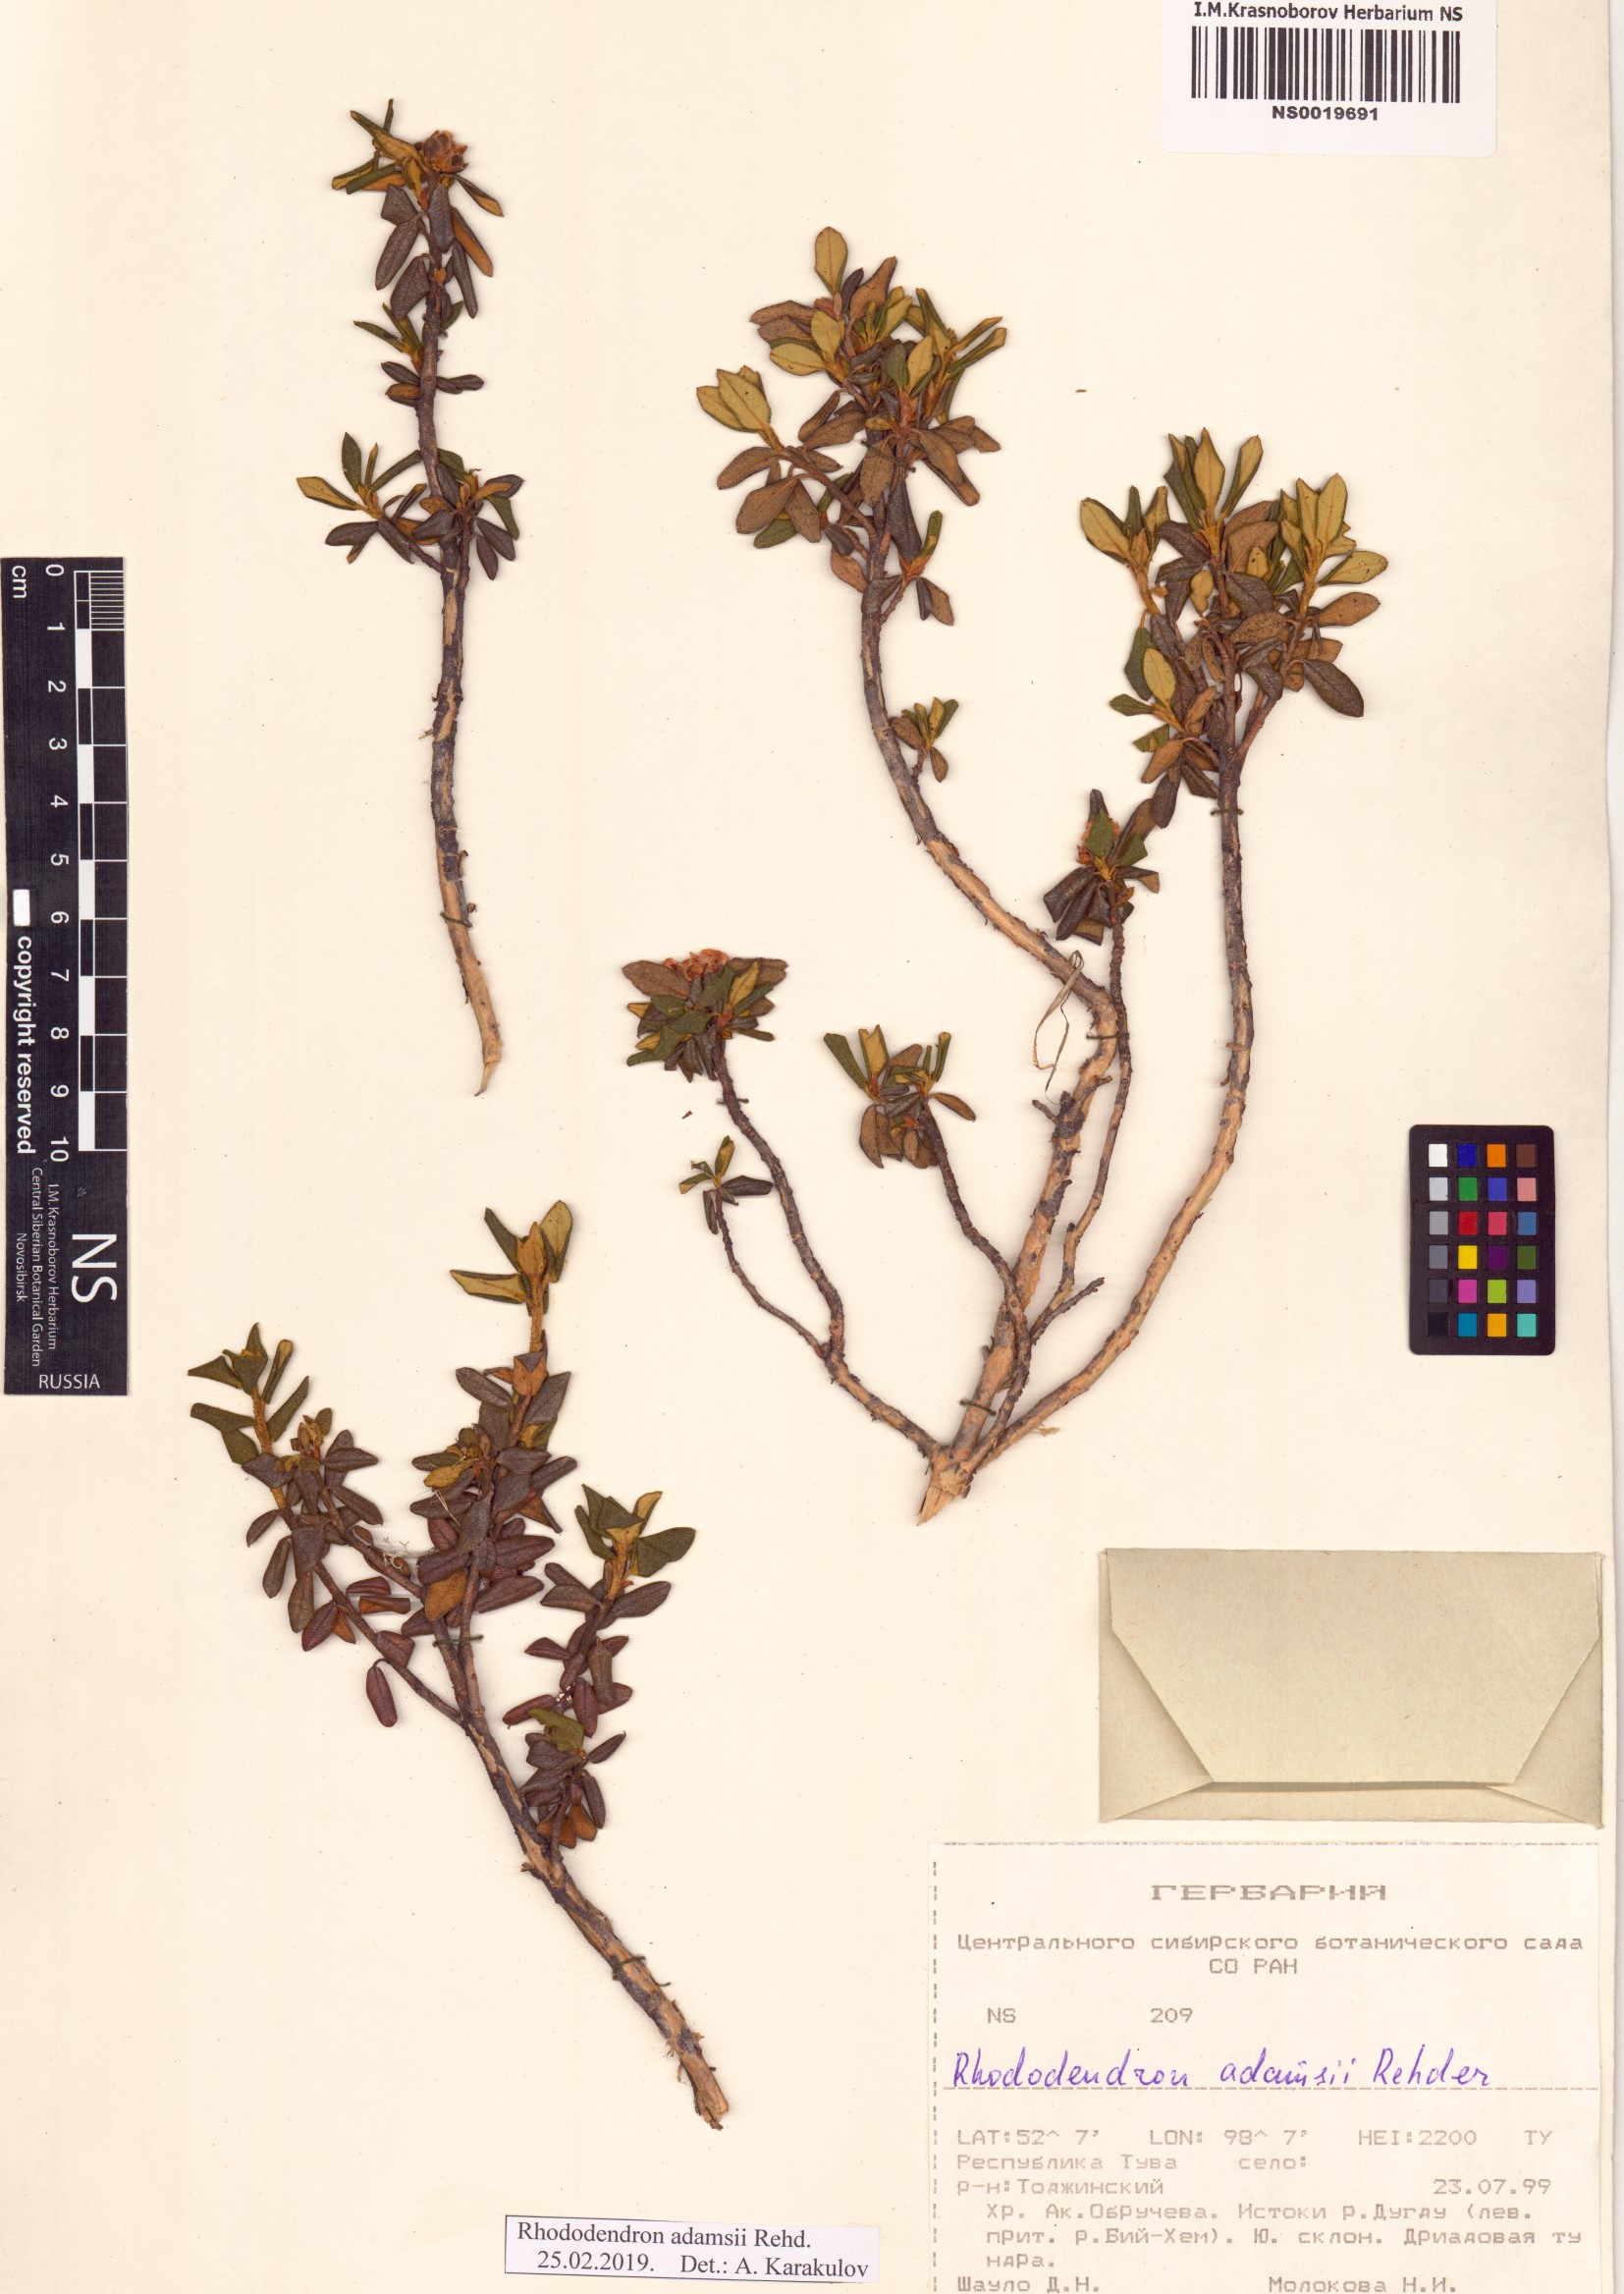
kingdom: Plantae
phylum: Tracheophyta
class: Magnoliopsida
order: Ericales
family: Ericaceae
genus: Rhododendron
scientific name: Rhododendron adamsii
